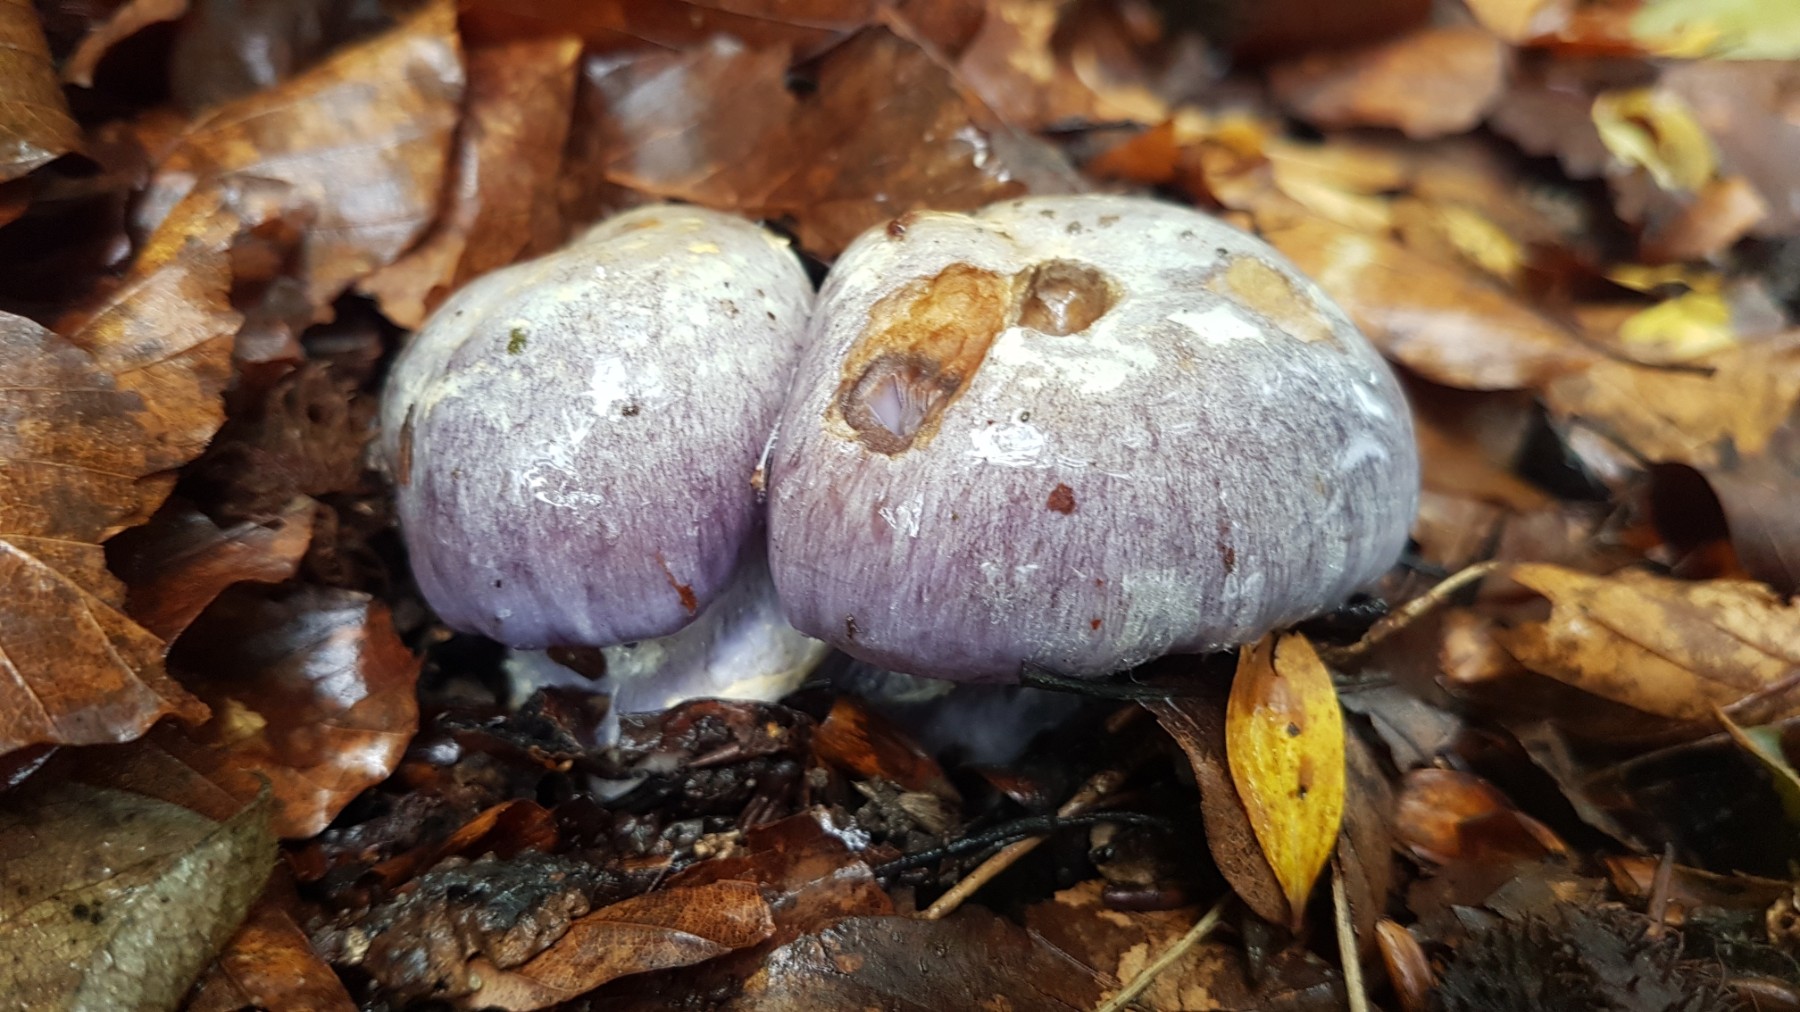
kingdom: Fungi
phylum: Basidiomycota
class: Agaricomycetes
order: Agaricales
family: Cortinariaceae
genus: Cortinarius
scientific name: Cortinarius caerulescens
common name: blåkødet slørhat
